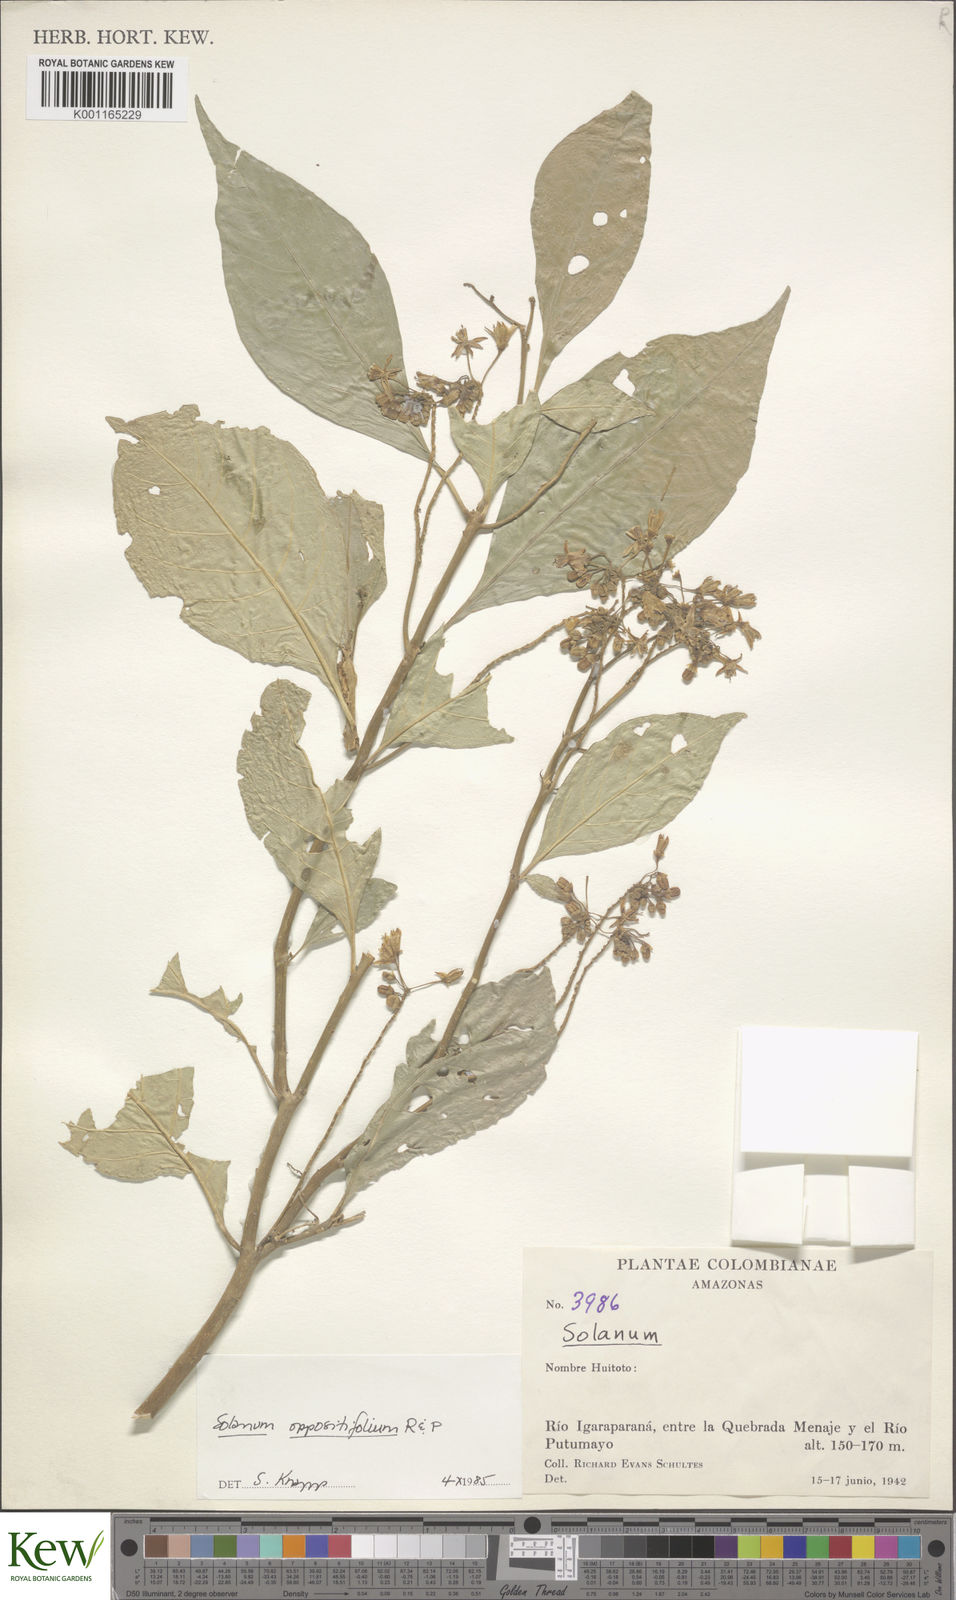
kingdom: Plantae
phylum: Tracheophyta
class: Magnoliopsida
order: Solanales
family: Solanaceae
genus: Solanum
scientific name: Solanum oppositifolium
